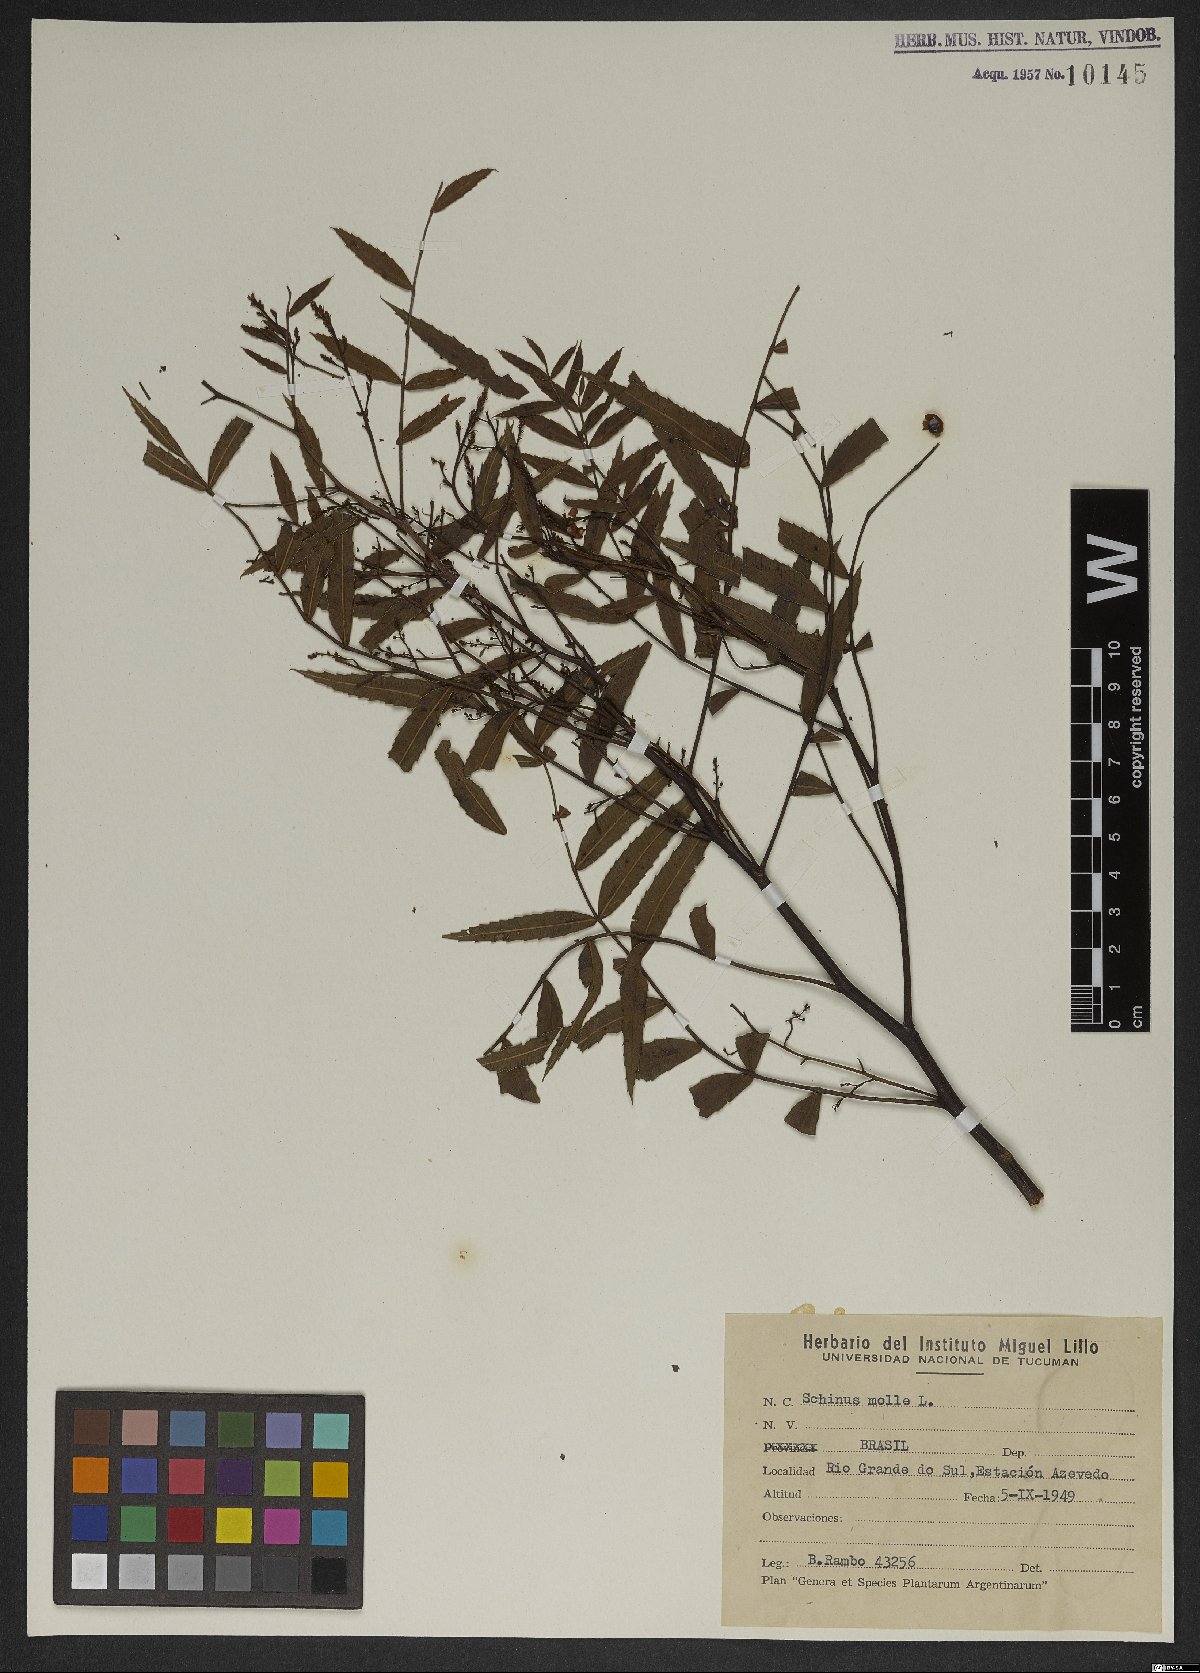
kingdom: Plantae
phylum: Tracheophyta
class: Magnoliopsida
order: Sapindales
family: Anacardiaceae
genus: Schinus
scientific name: Schinus molle
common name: Peruvian peppertree
